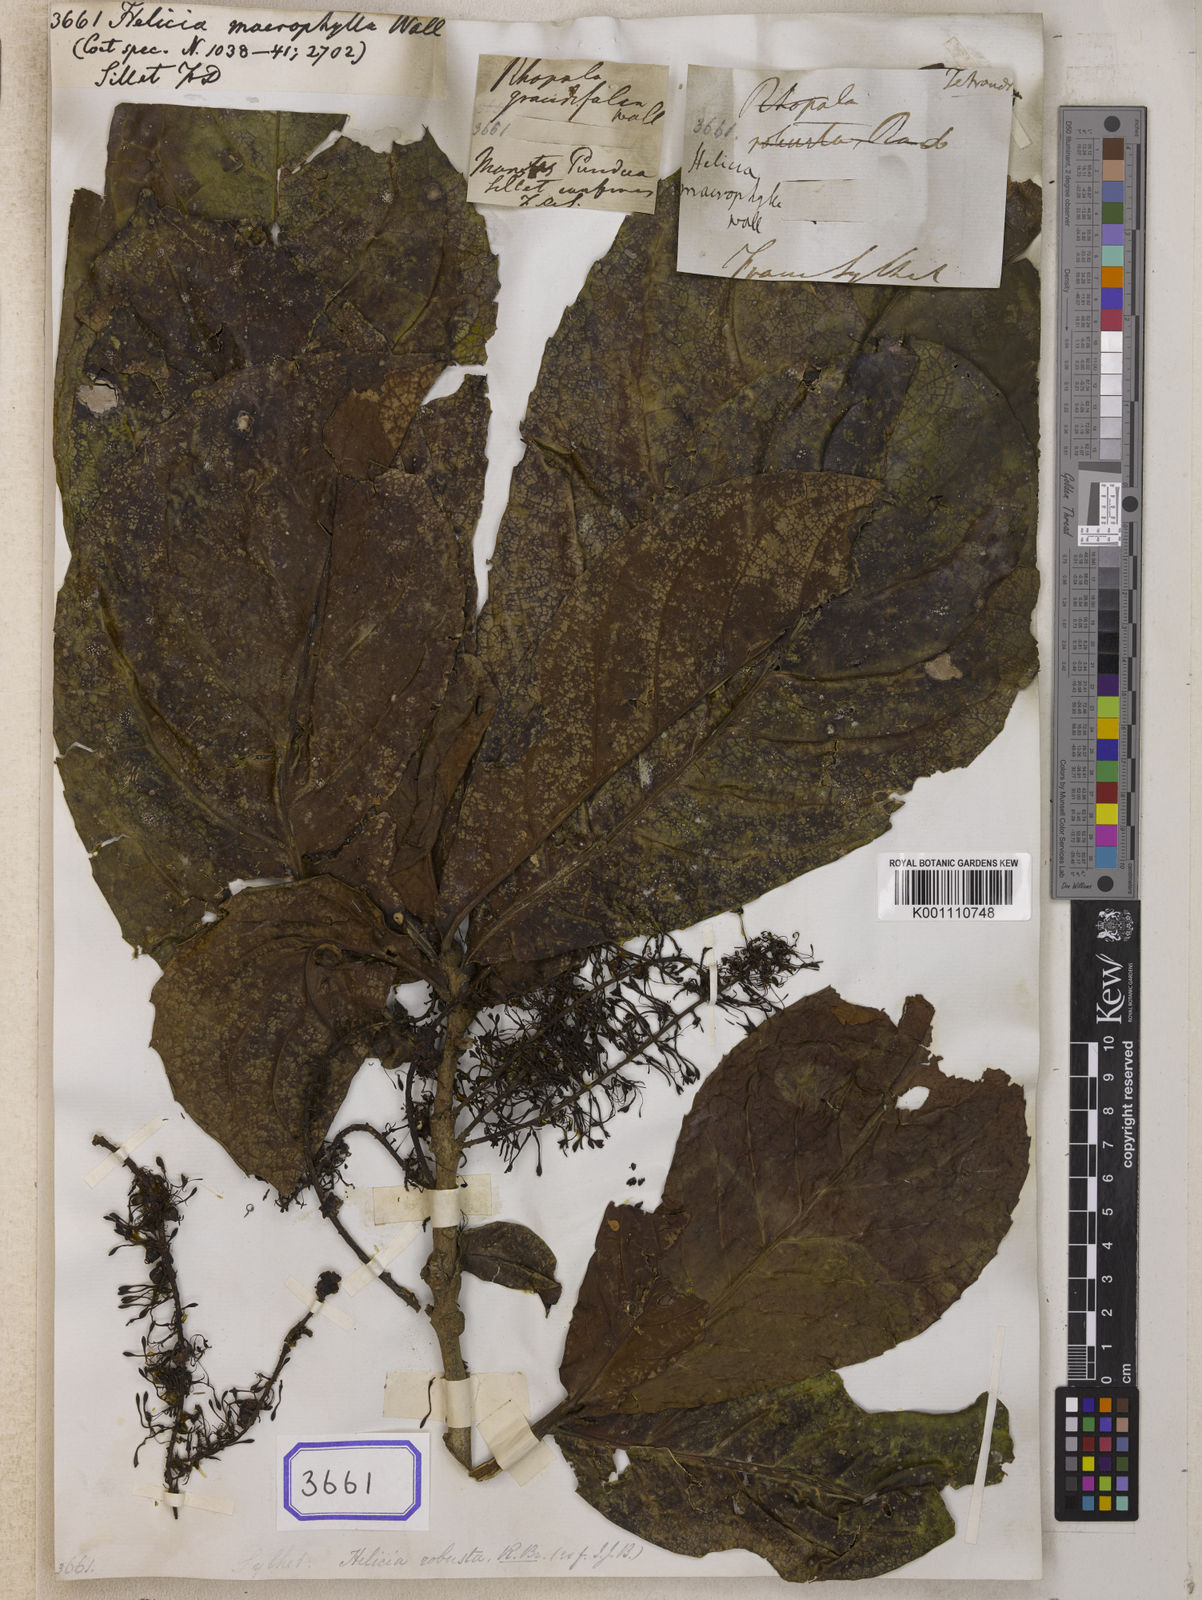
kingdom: Plantae
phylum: Tracheophyta
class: Magnoliopsida
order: Proteales
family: Proteaceae
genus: Helicia
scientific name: Helicia robusta
